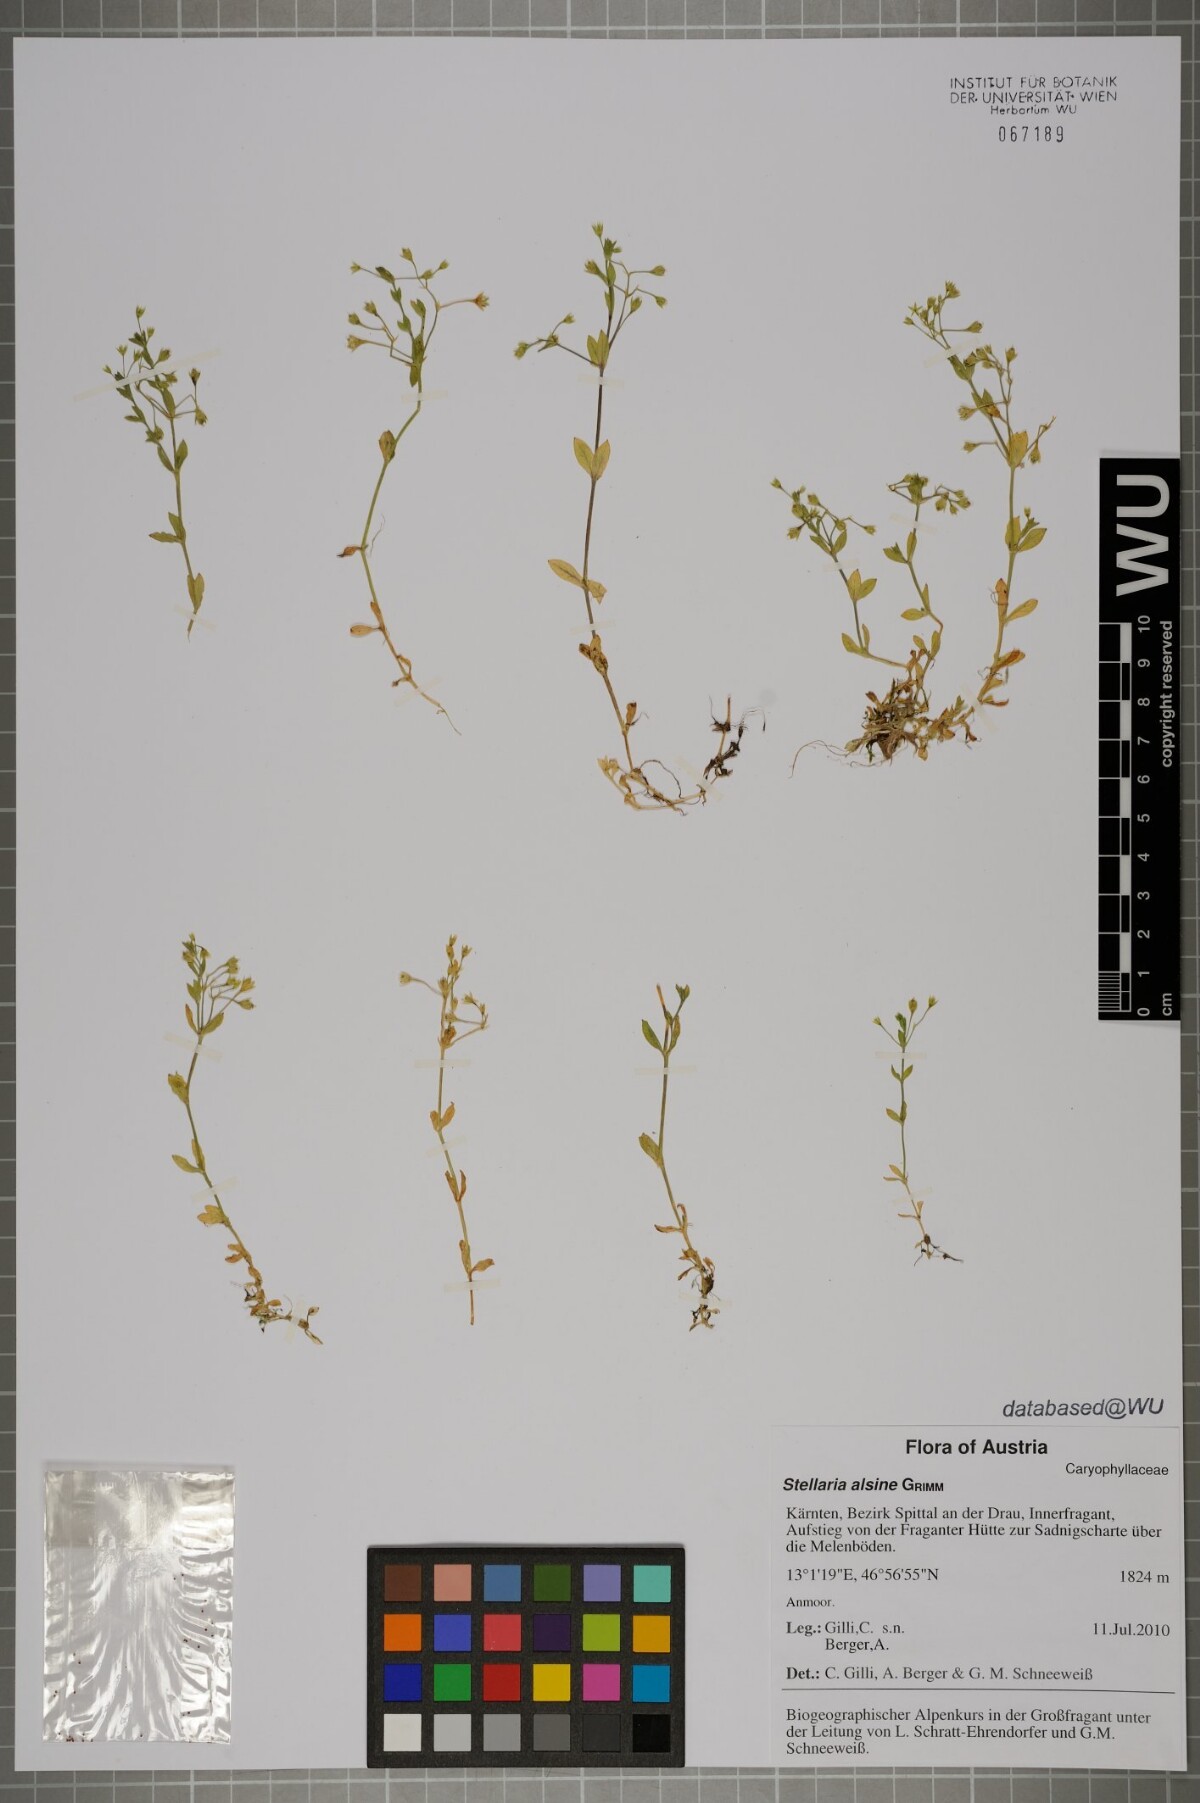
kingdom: Plantae
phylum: Tracheophyta
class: Magnoliopsida
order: Caryophyllales
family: Caryophyllaceae
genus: Stellaria
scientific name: Stellaria alsine
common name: Bog stitchwort
